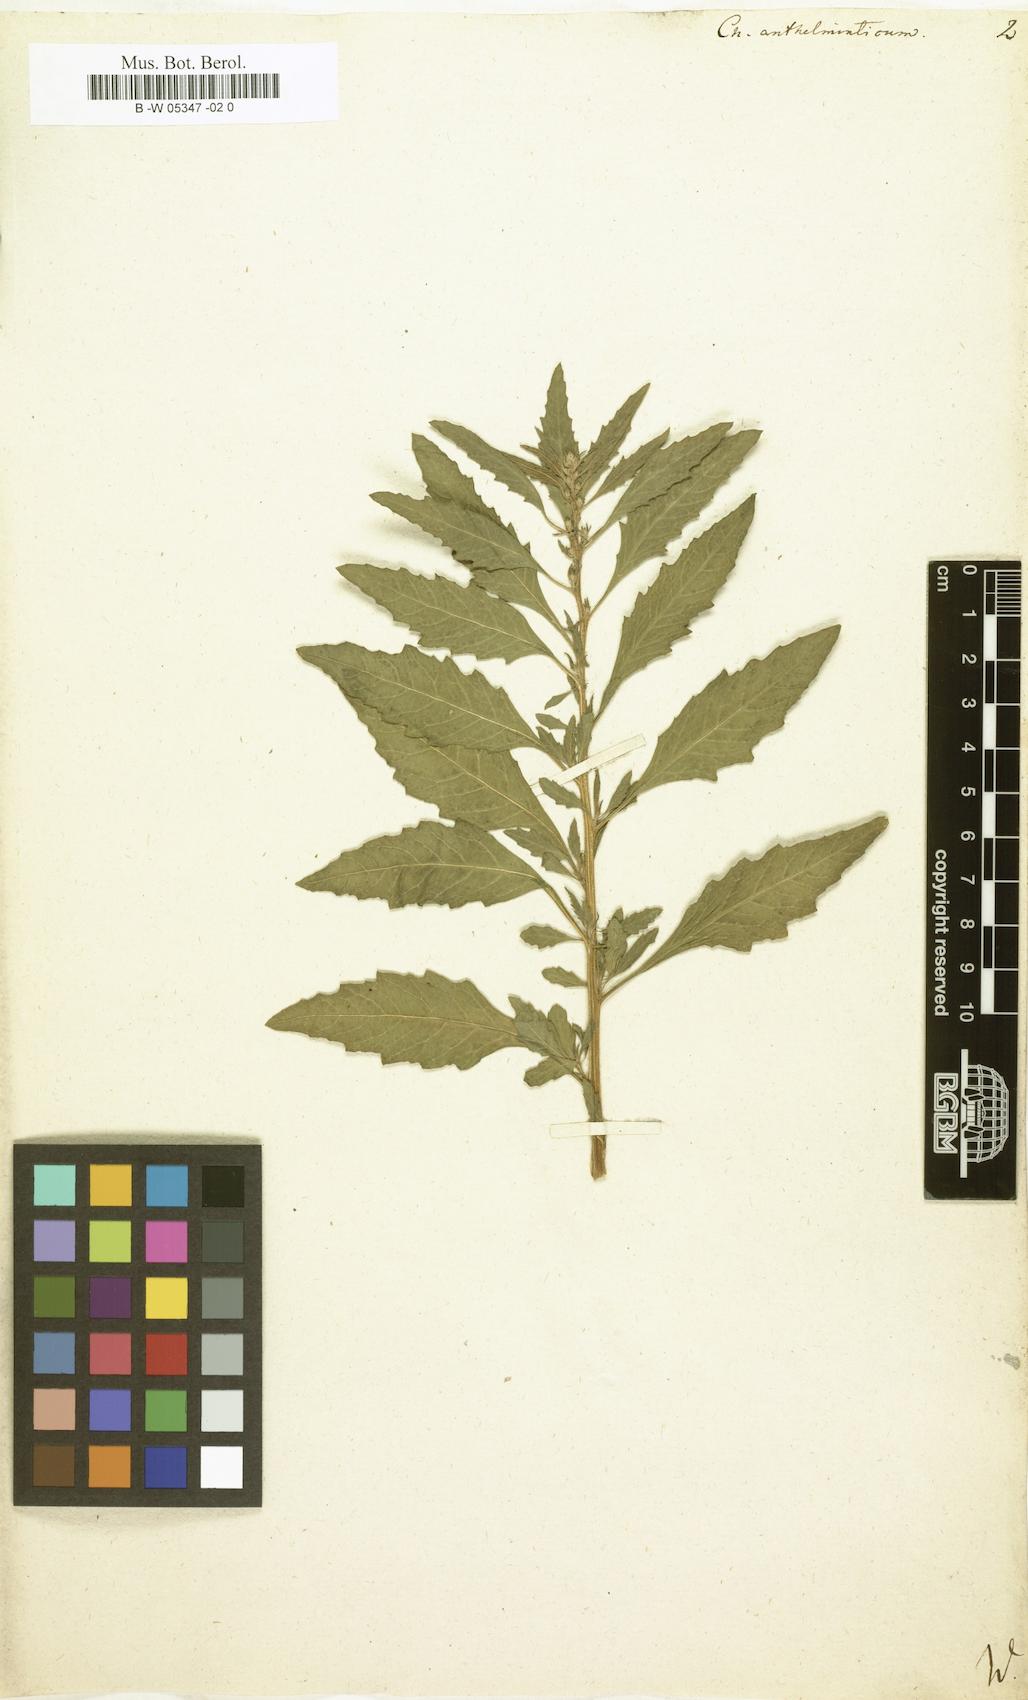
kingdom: Plantae
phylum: Tracheophyta
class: Magnoliopsida
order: Caryophyllales
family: Amaranthaceae
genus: Dysphania
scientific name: Dysphania anthelmintica
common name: Wormseed
